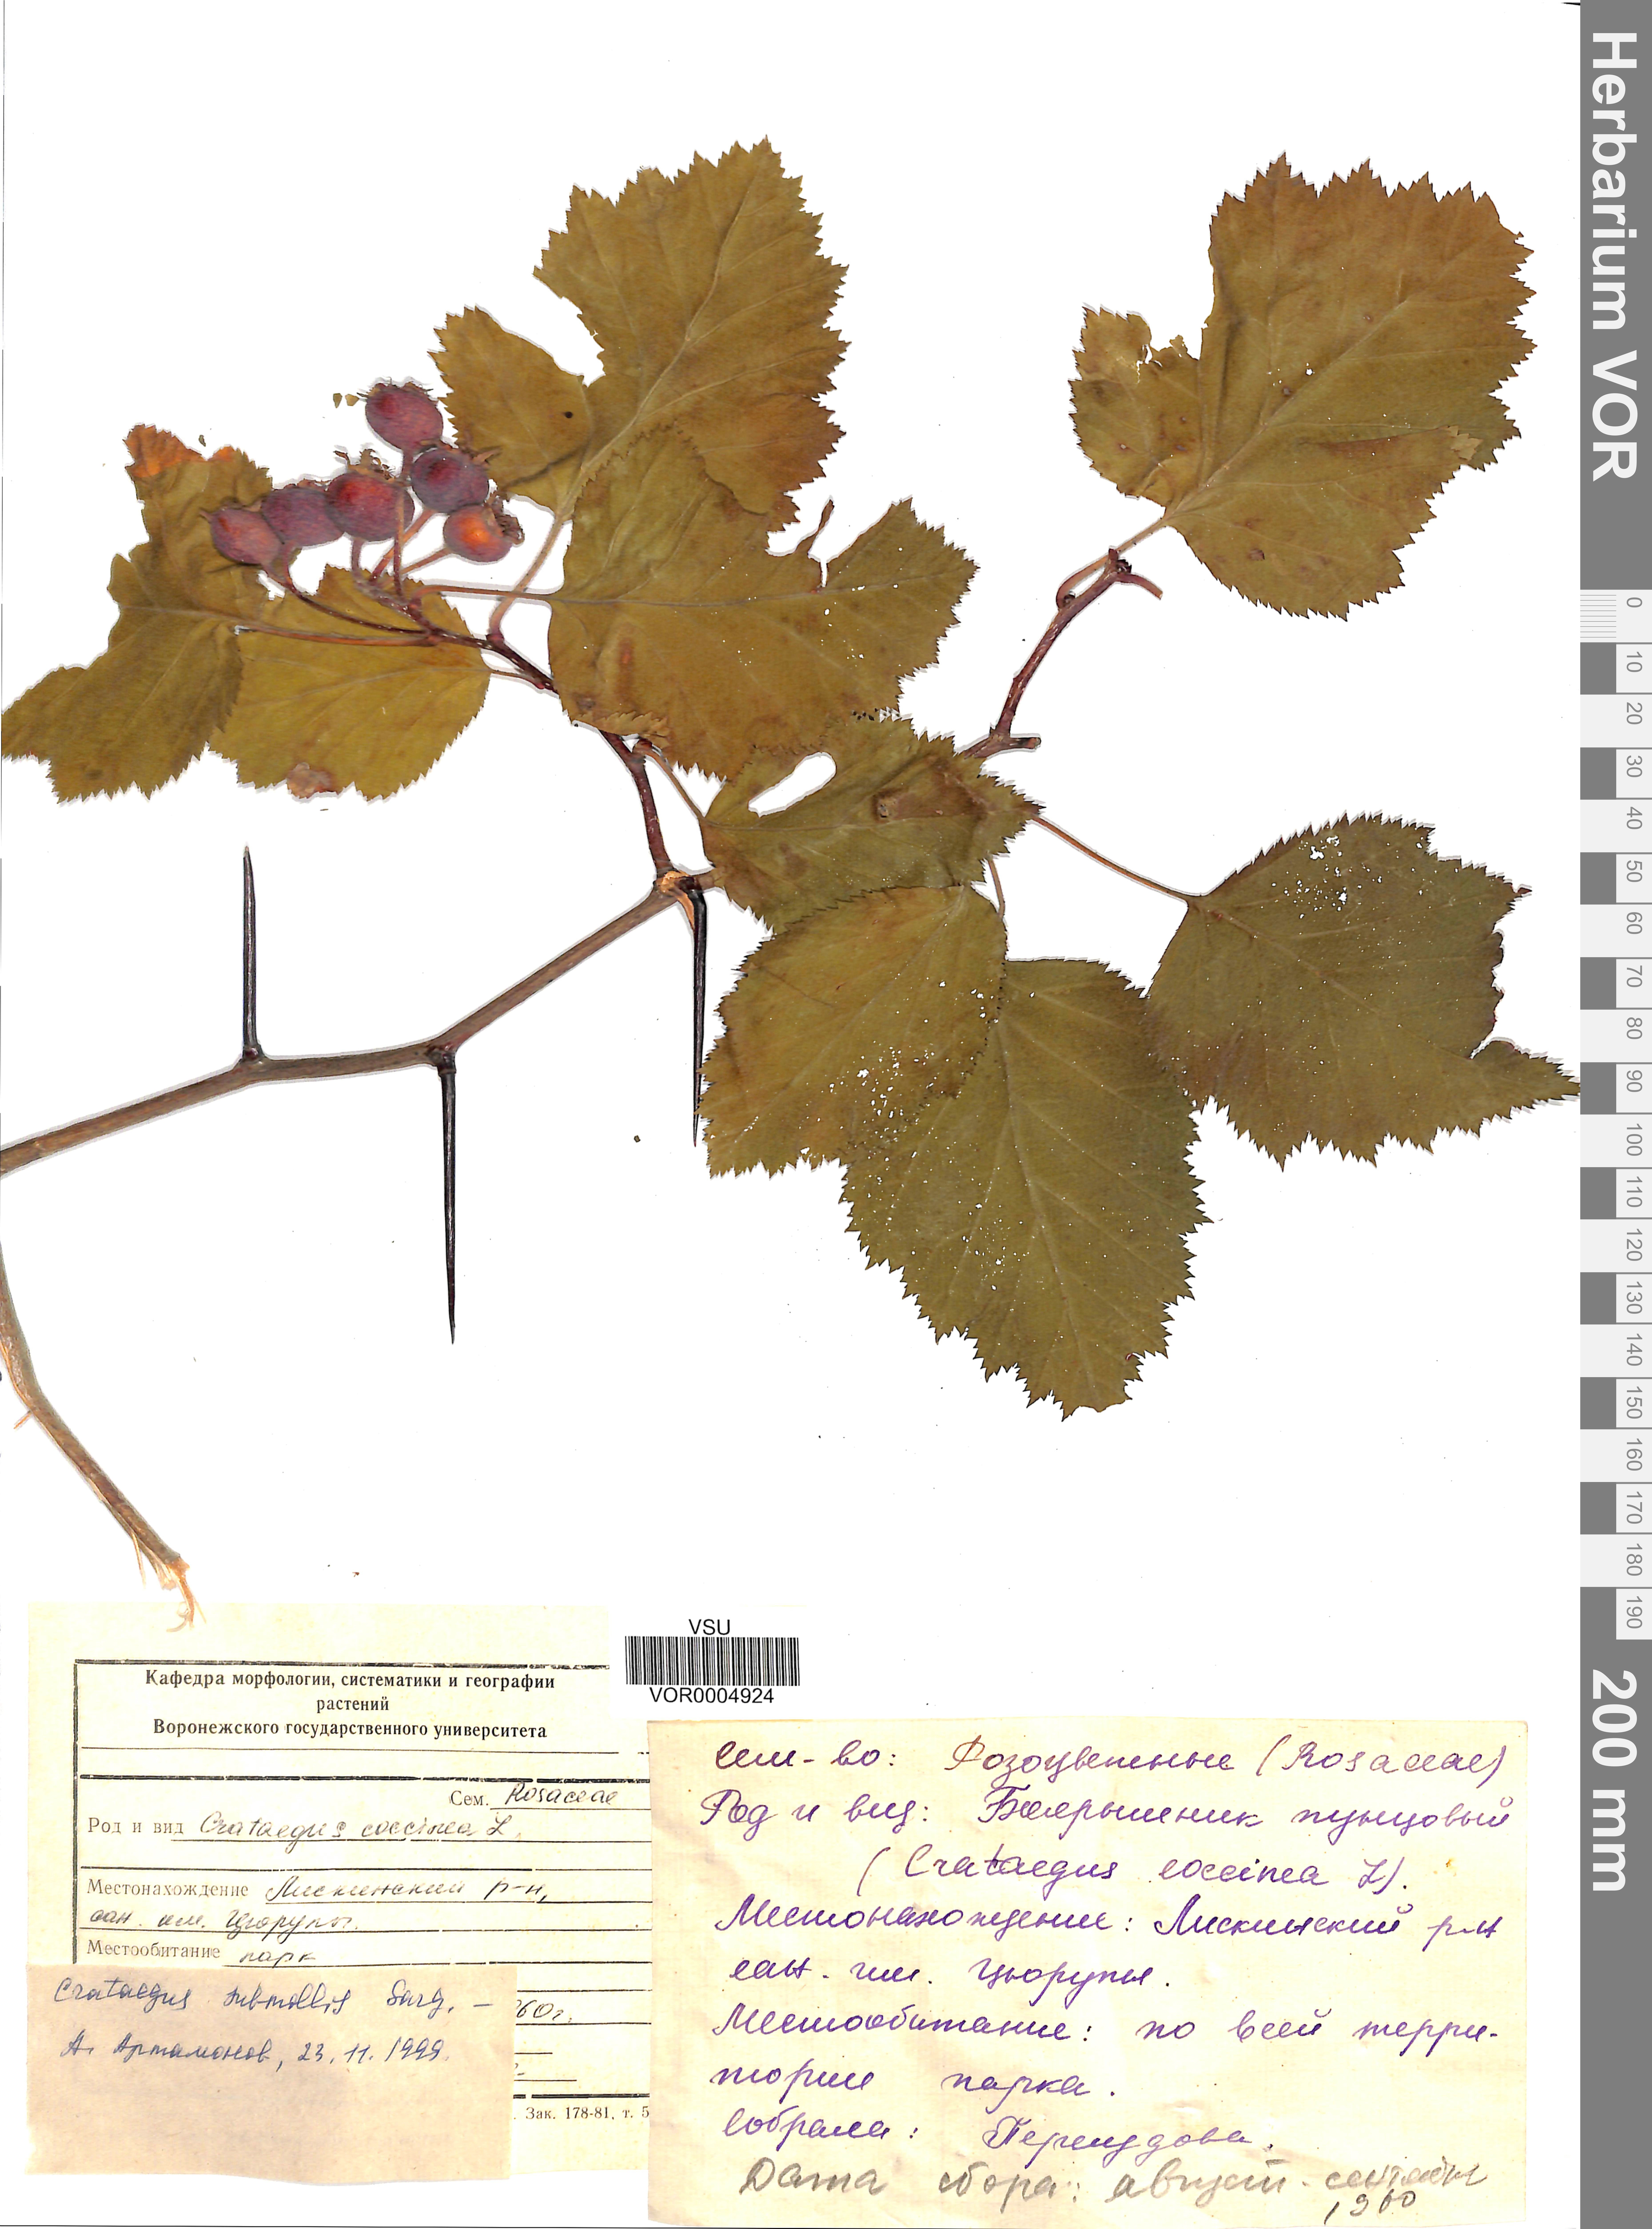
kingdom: Plantae
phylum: Tracheophyta
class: Magnoliopsida
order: Rosales
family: Rosaceae
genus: Crataegus
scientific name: Crataegus submollis
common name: Hairy cockspurthorn
